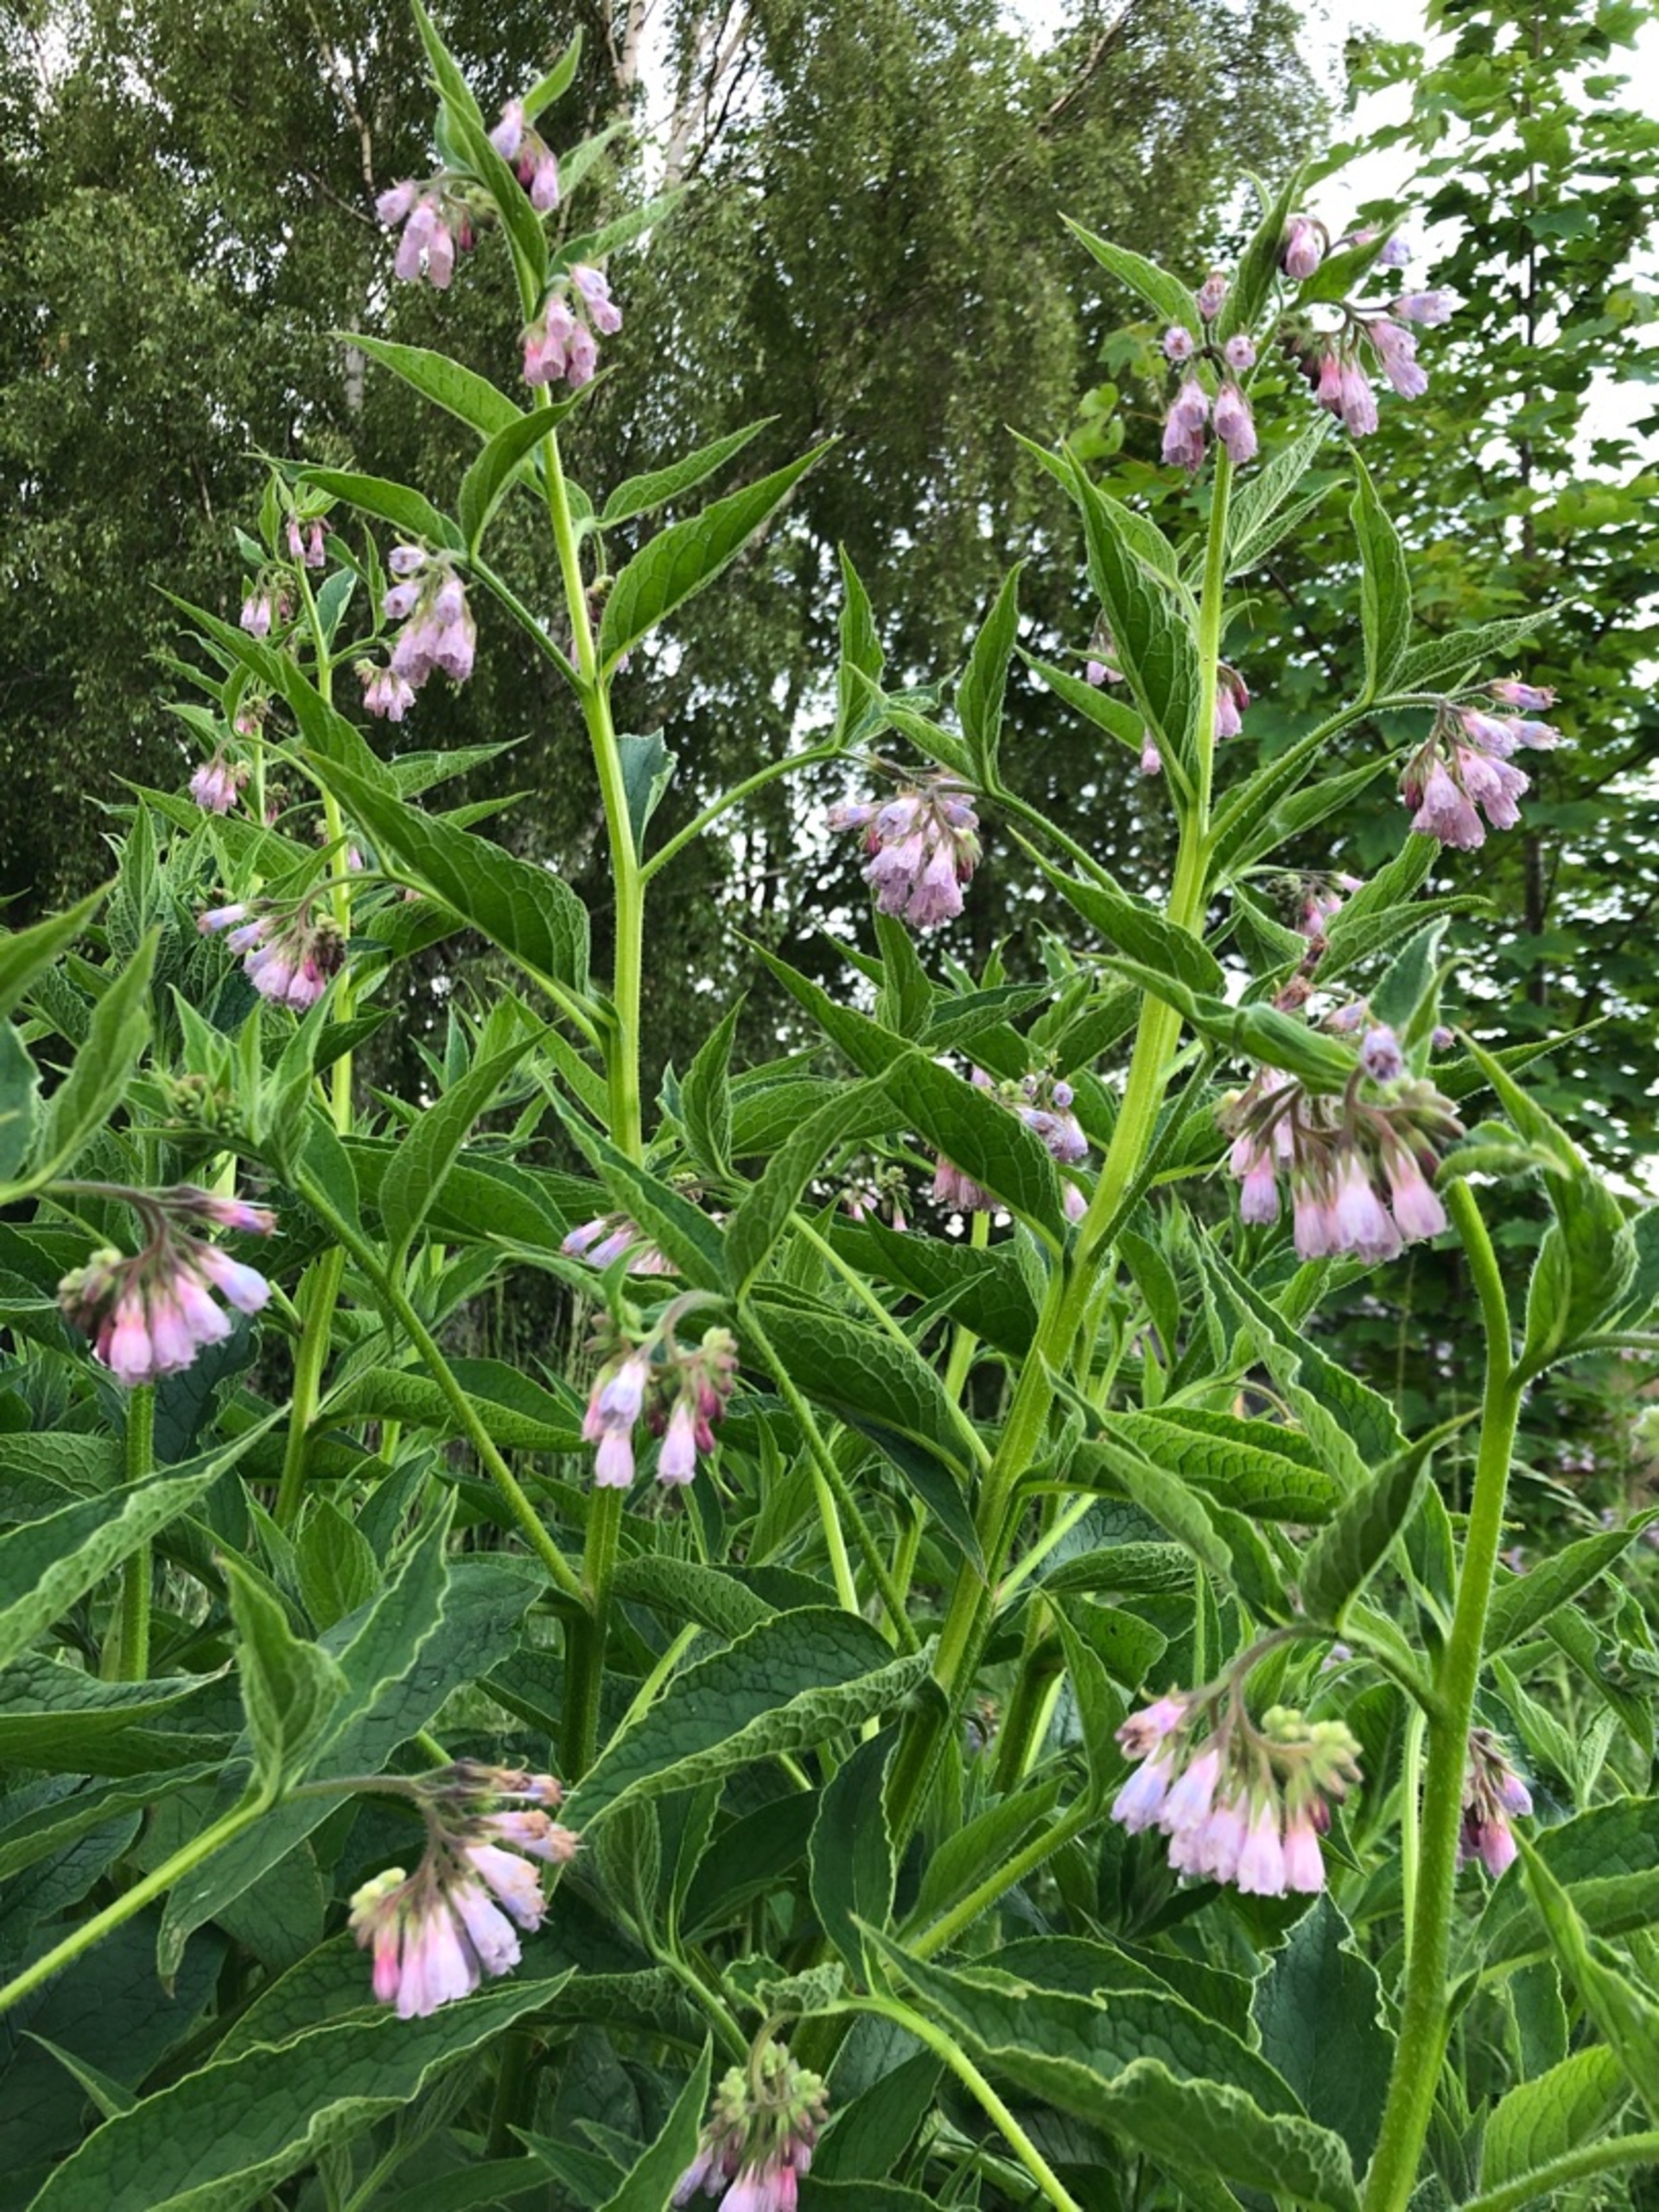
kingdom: Plantae
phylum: Tracheophyta
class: Magnoliopsida
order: Boraginales
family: Boraginaceae
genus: Symphytum
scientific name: Symphytum uplandicum
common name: Foder-kulsukker
